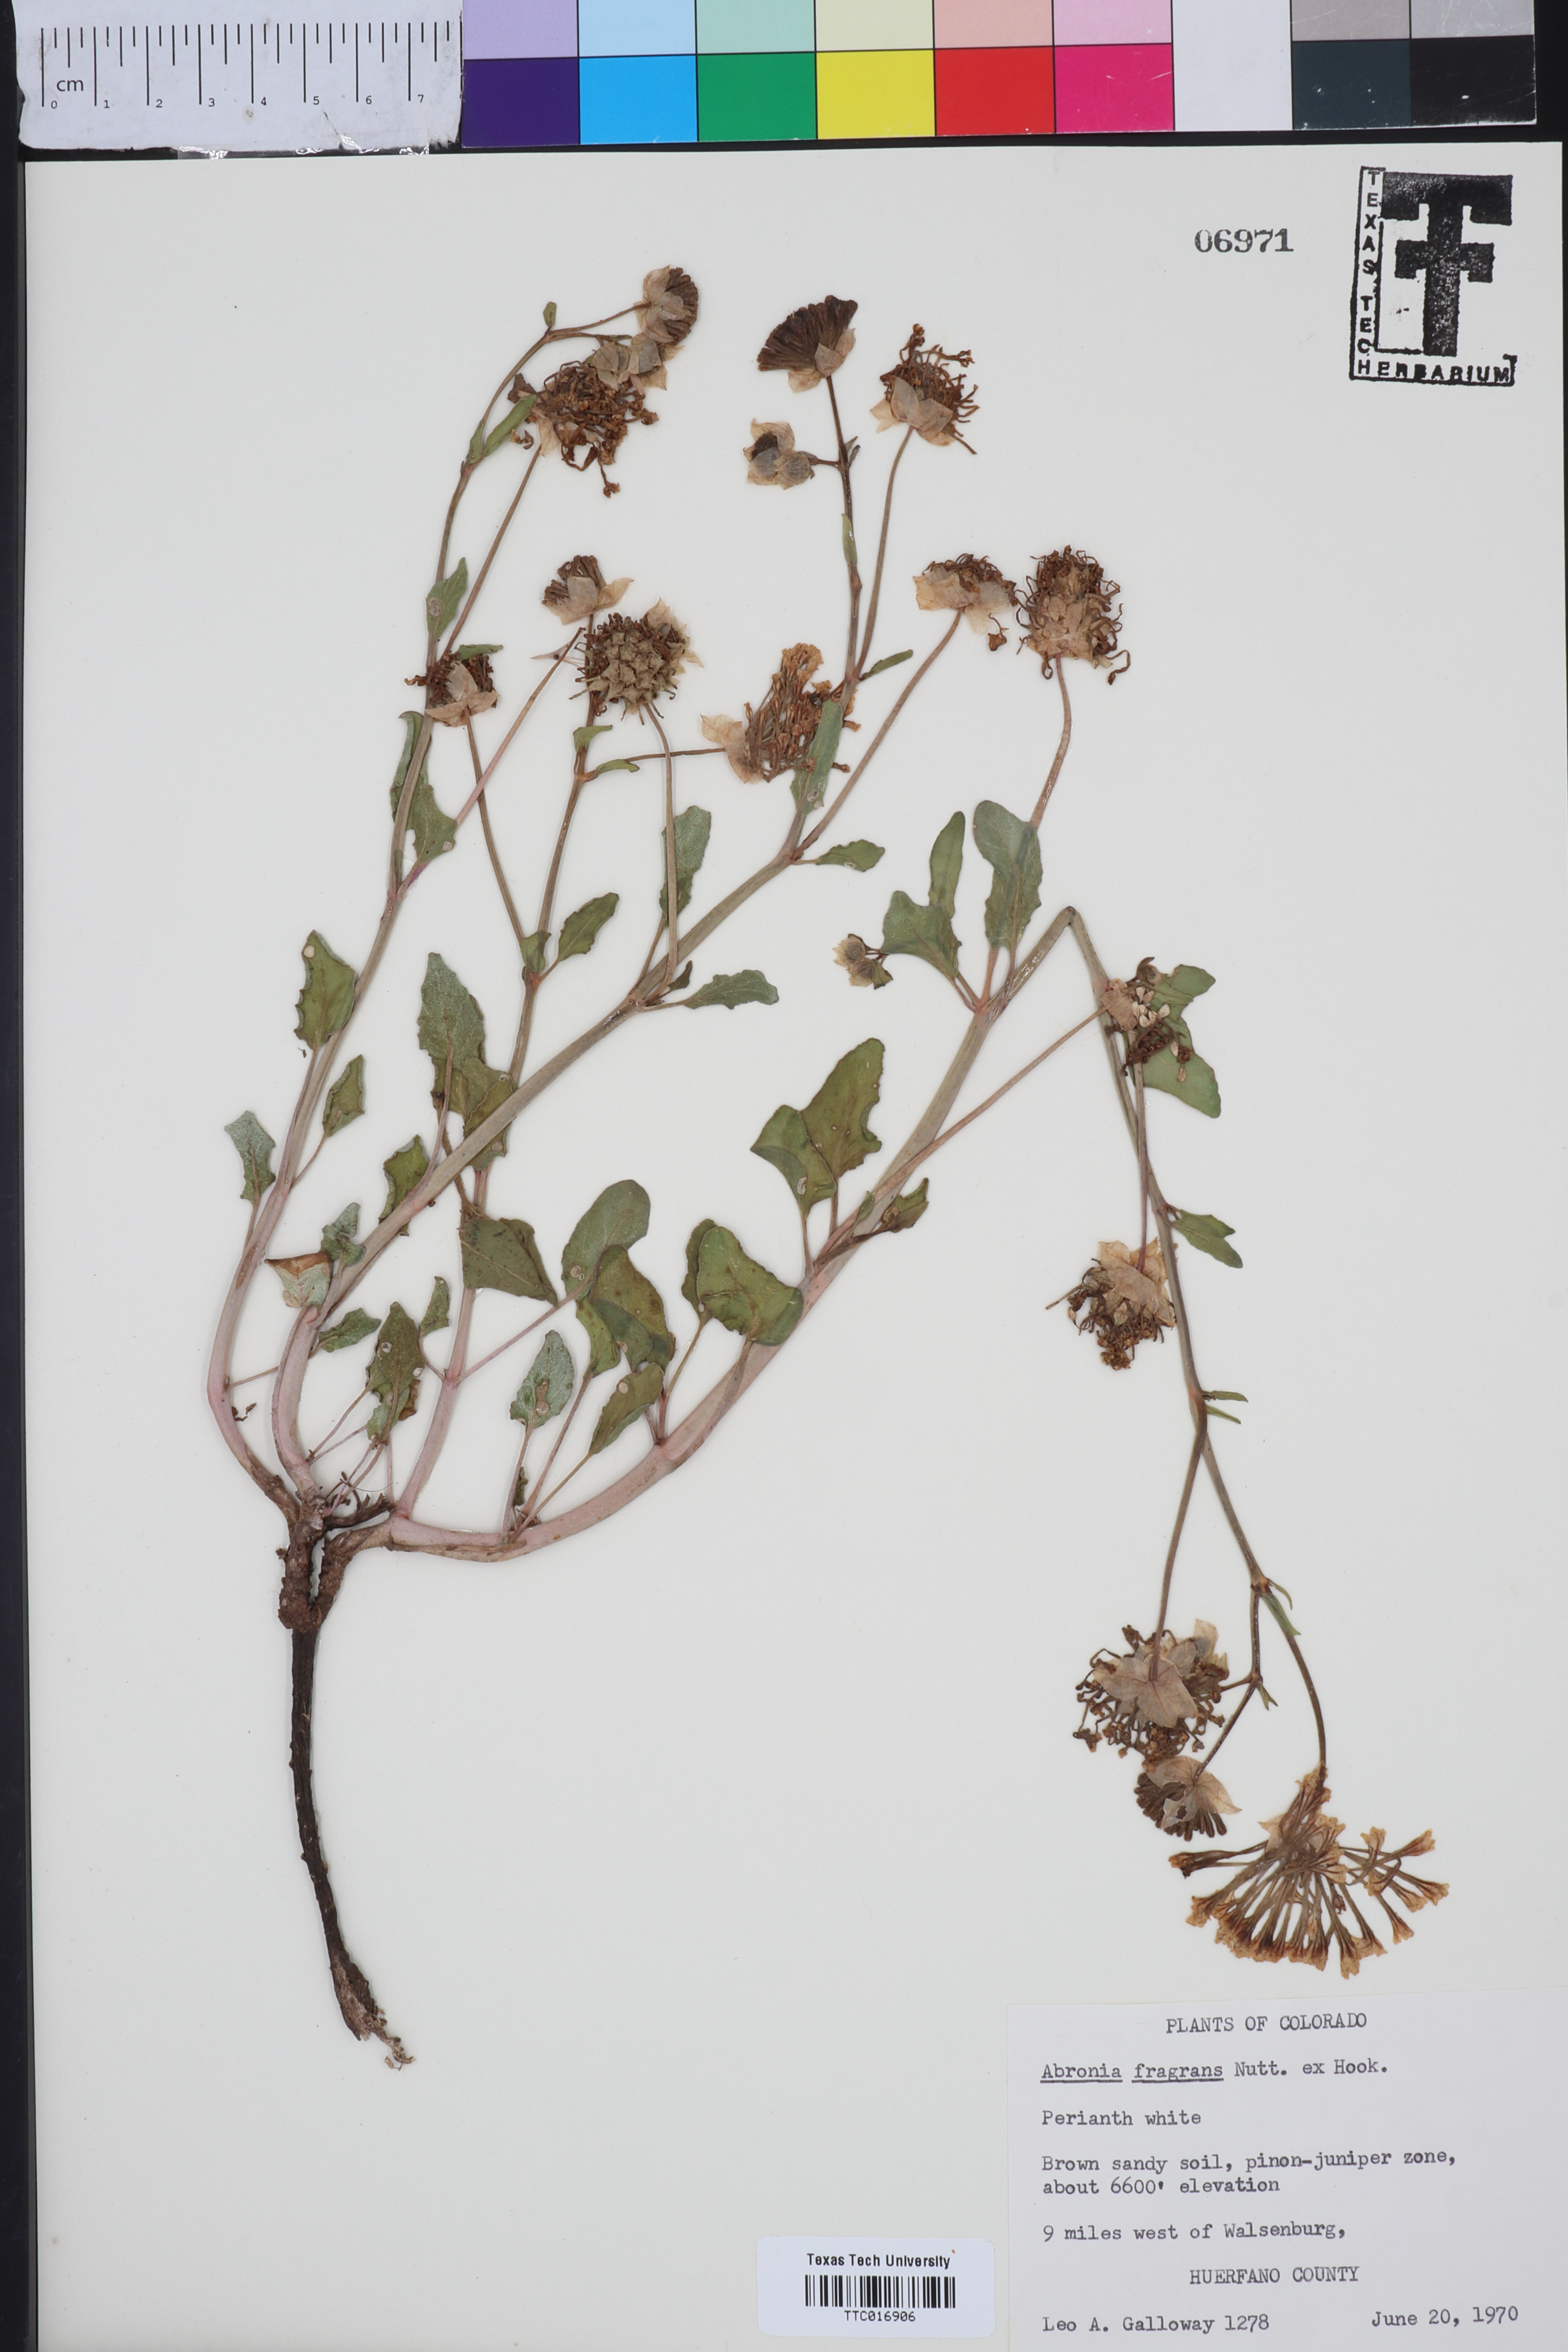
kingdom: Plantae
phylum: Tracheophyta
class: Magnoliopsida
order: Caryophyllales
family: Nyctaginaceae
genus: Abronia
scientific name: Abronia fragrans
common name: Fragrant sand-verbena
